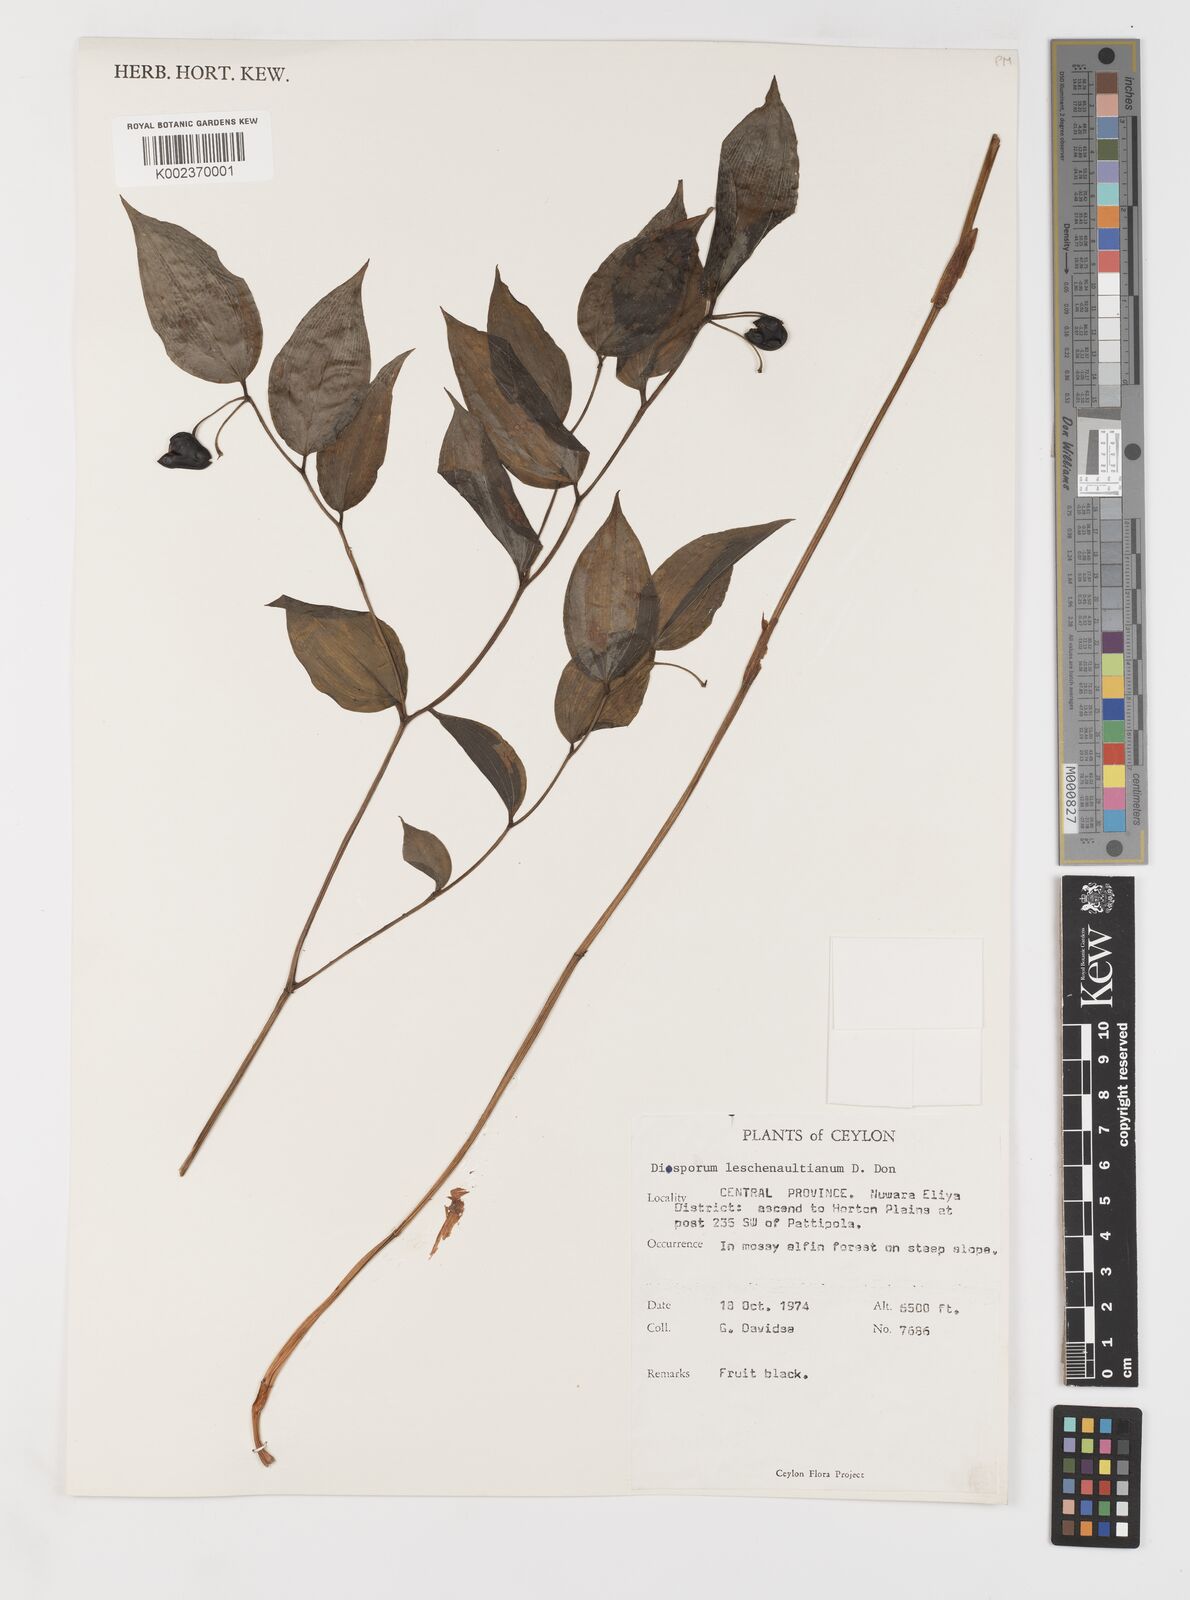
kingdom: Plantae
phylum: Tracheophyta
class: Liliopsida
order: Liliales
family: Colchicaceae
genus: Disporum
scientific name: Disporum cantoniense
